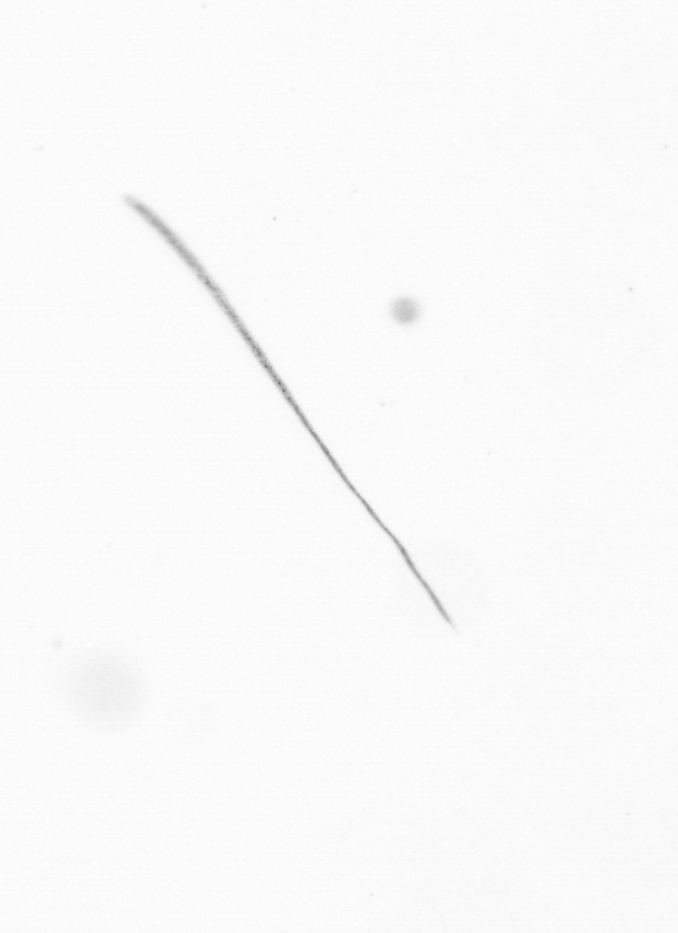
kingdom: Chromista
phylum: Ochrophyta
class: Bacillariophyceae
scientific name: Bacillariophyceae
